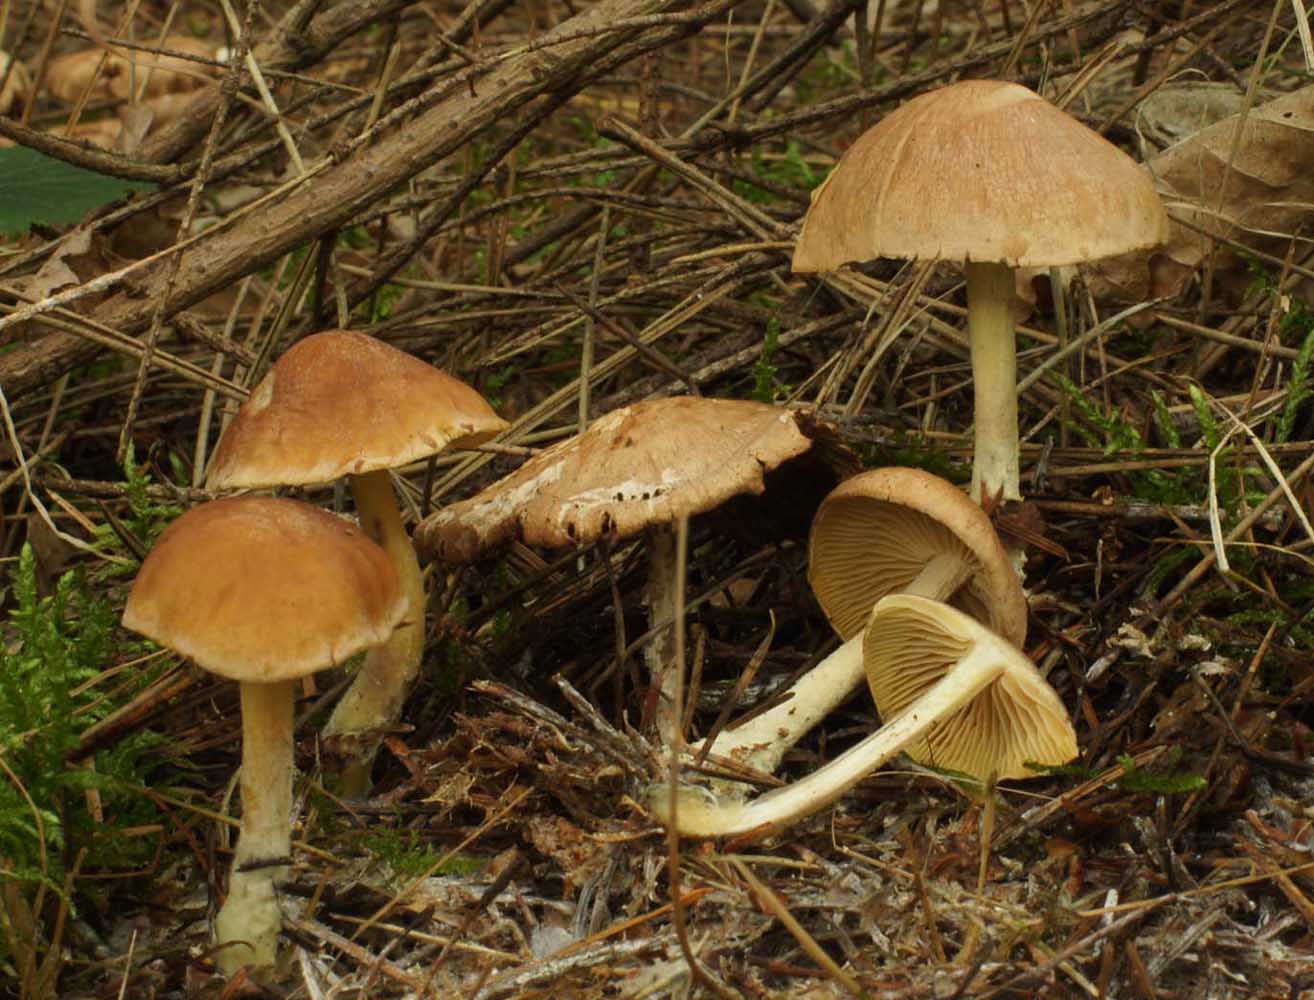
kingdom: Fungi
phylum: Basidiomycota
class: Agaricomycetes
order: Agaricales
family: Omphalotaceae
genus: Collybiopsis
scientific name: Collybiopsis peronata
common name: bestøvlet fladhat
